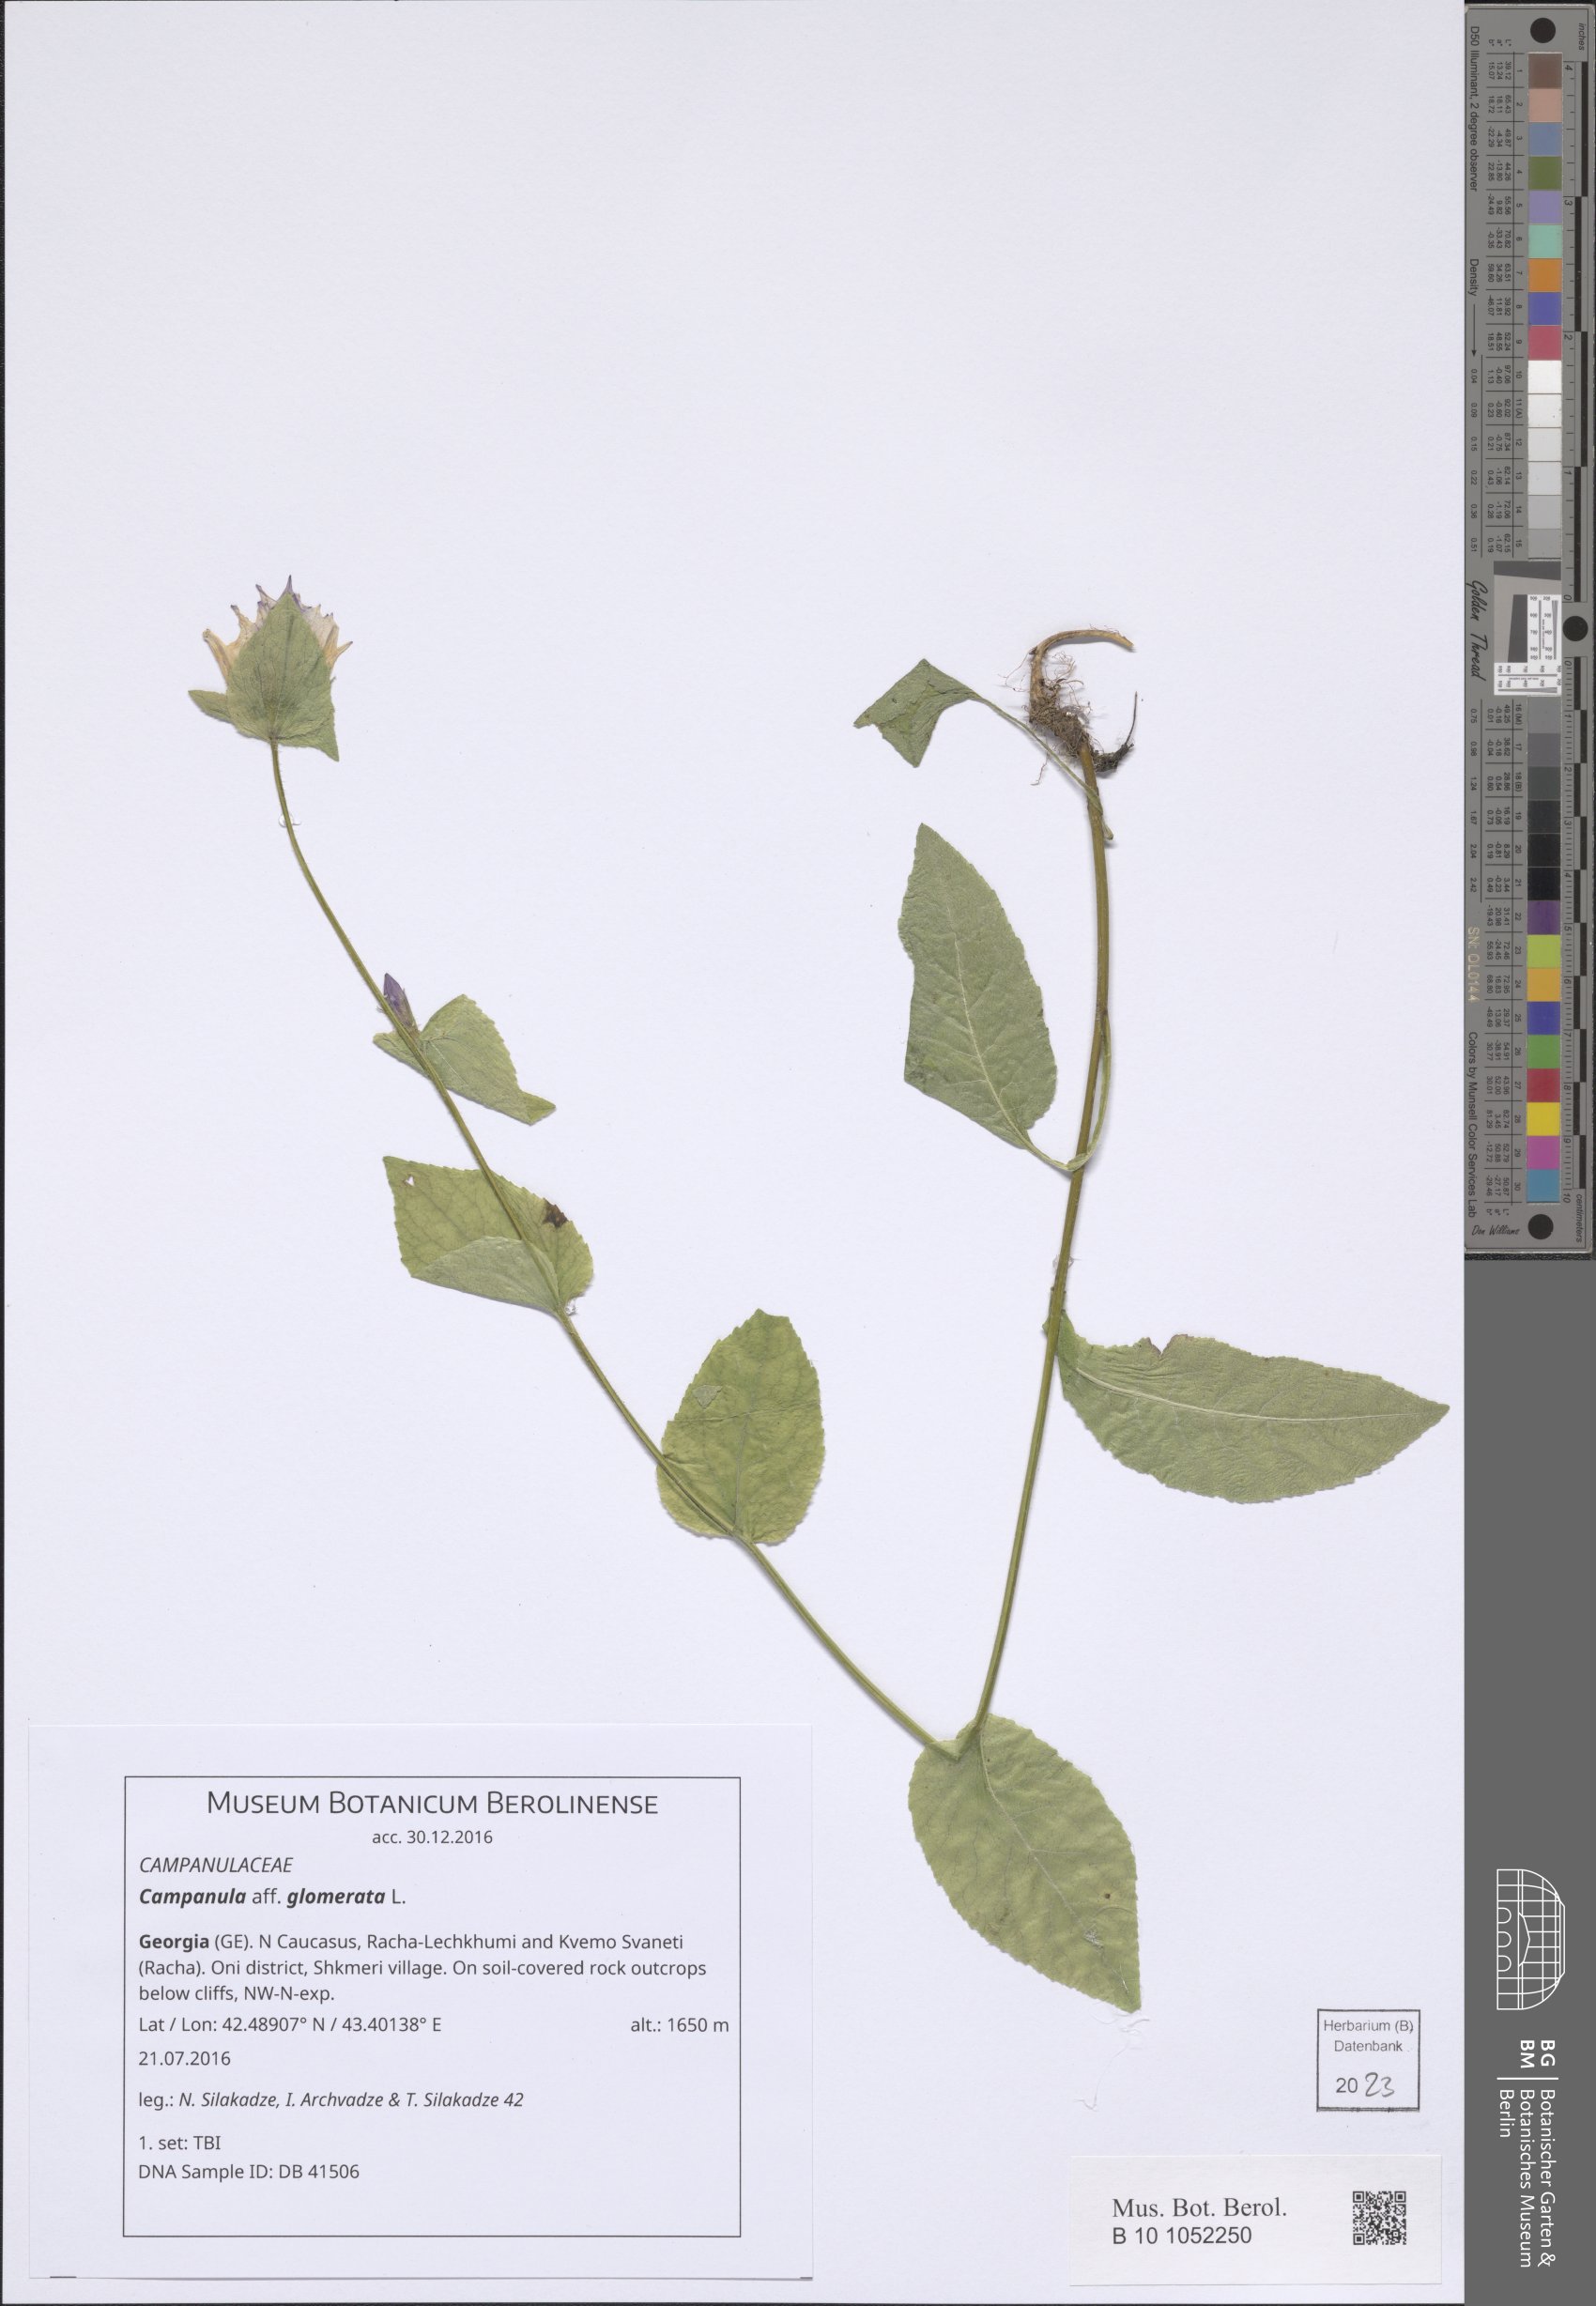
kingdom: Plantae
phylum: Tracheophyta
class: Magnoliopsida
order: Asterales
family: Campanulaceae
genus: Campanula
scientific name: Campanula glomerata
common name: Clustered bellflower
